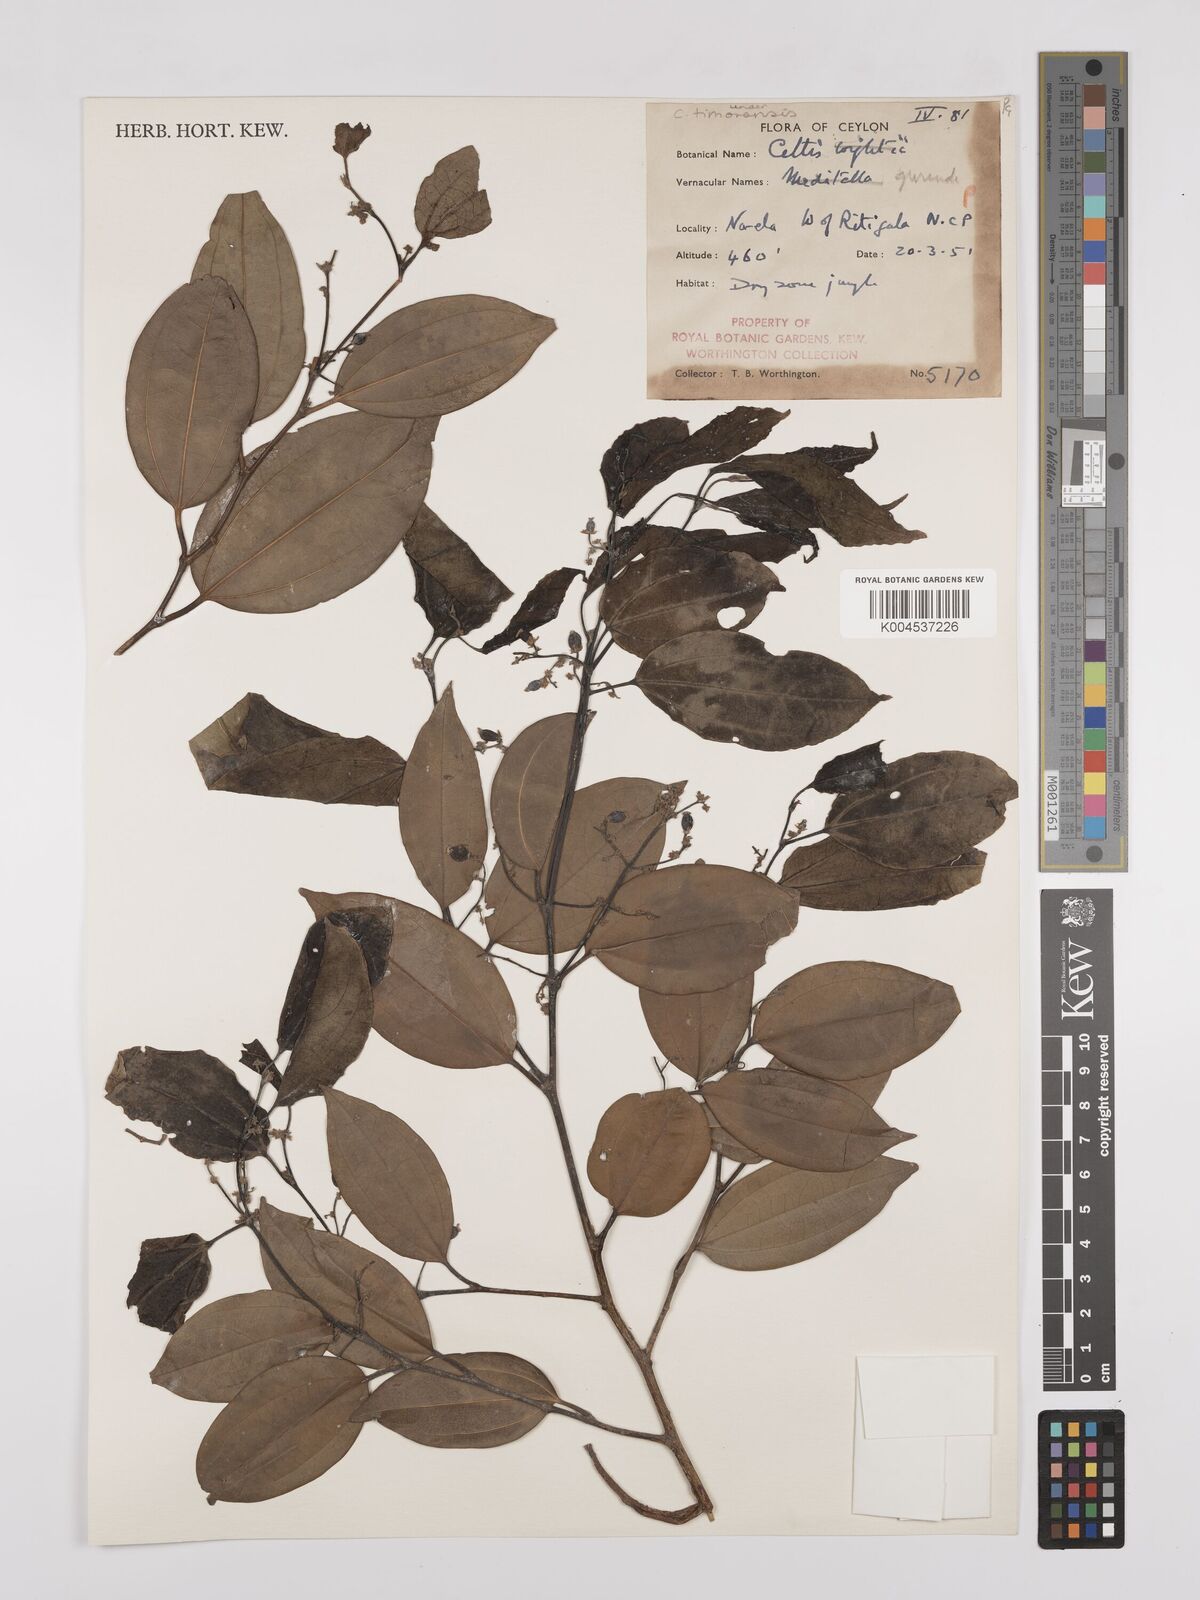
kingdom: Plantae
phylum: Tracheophyta
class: Magnoliopsida
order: Rosales
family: Cannabaceae
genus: Celtis
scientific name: Celtis timorensis
